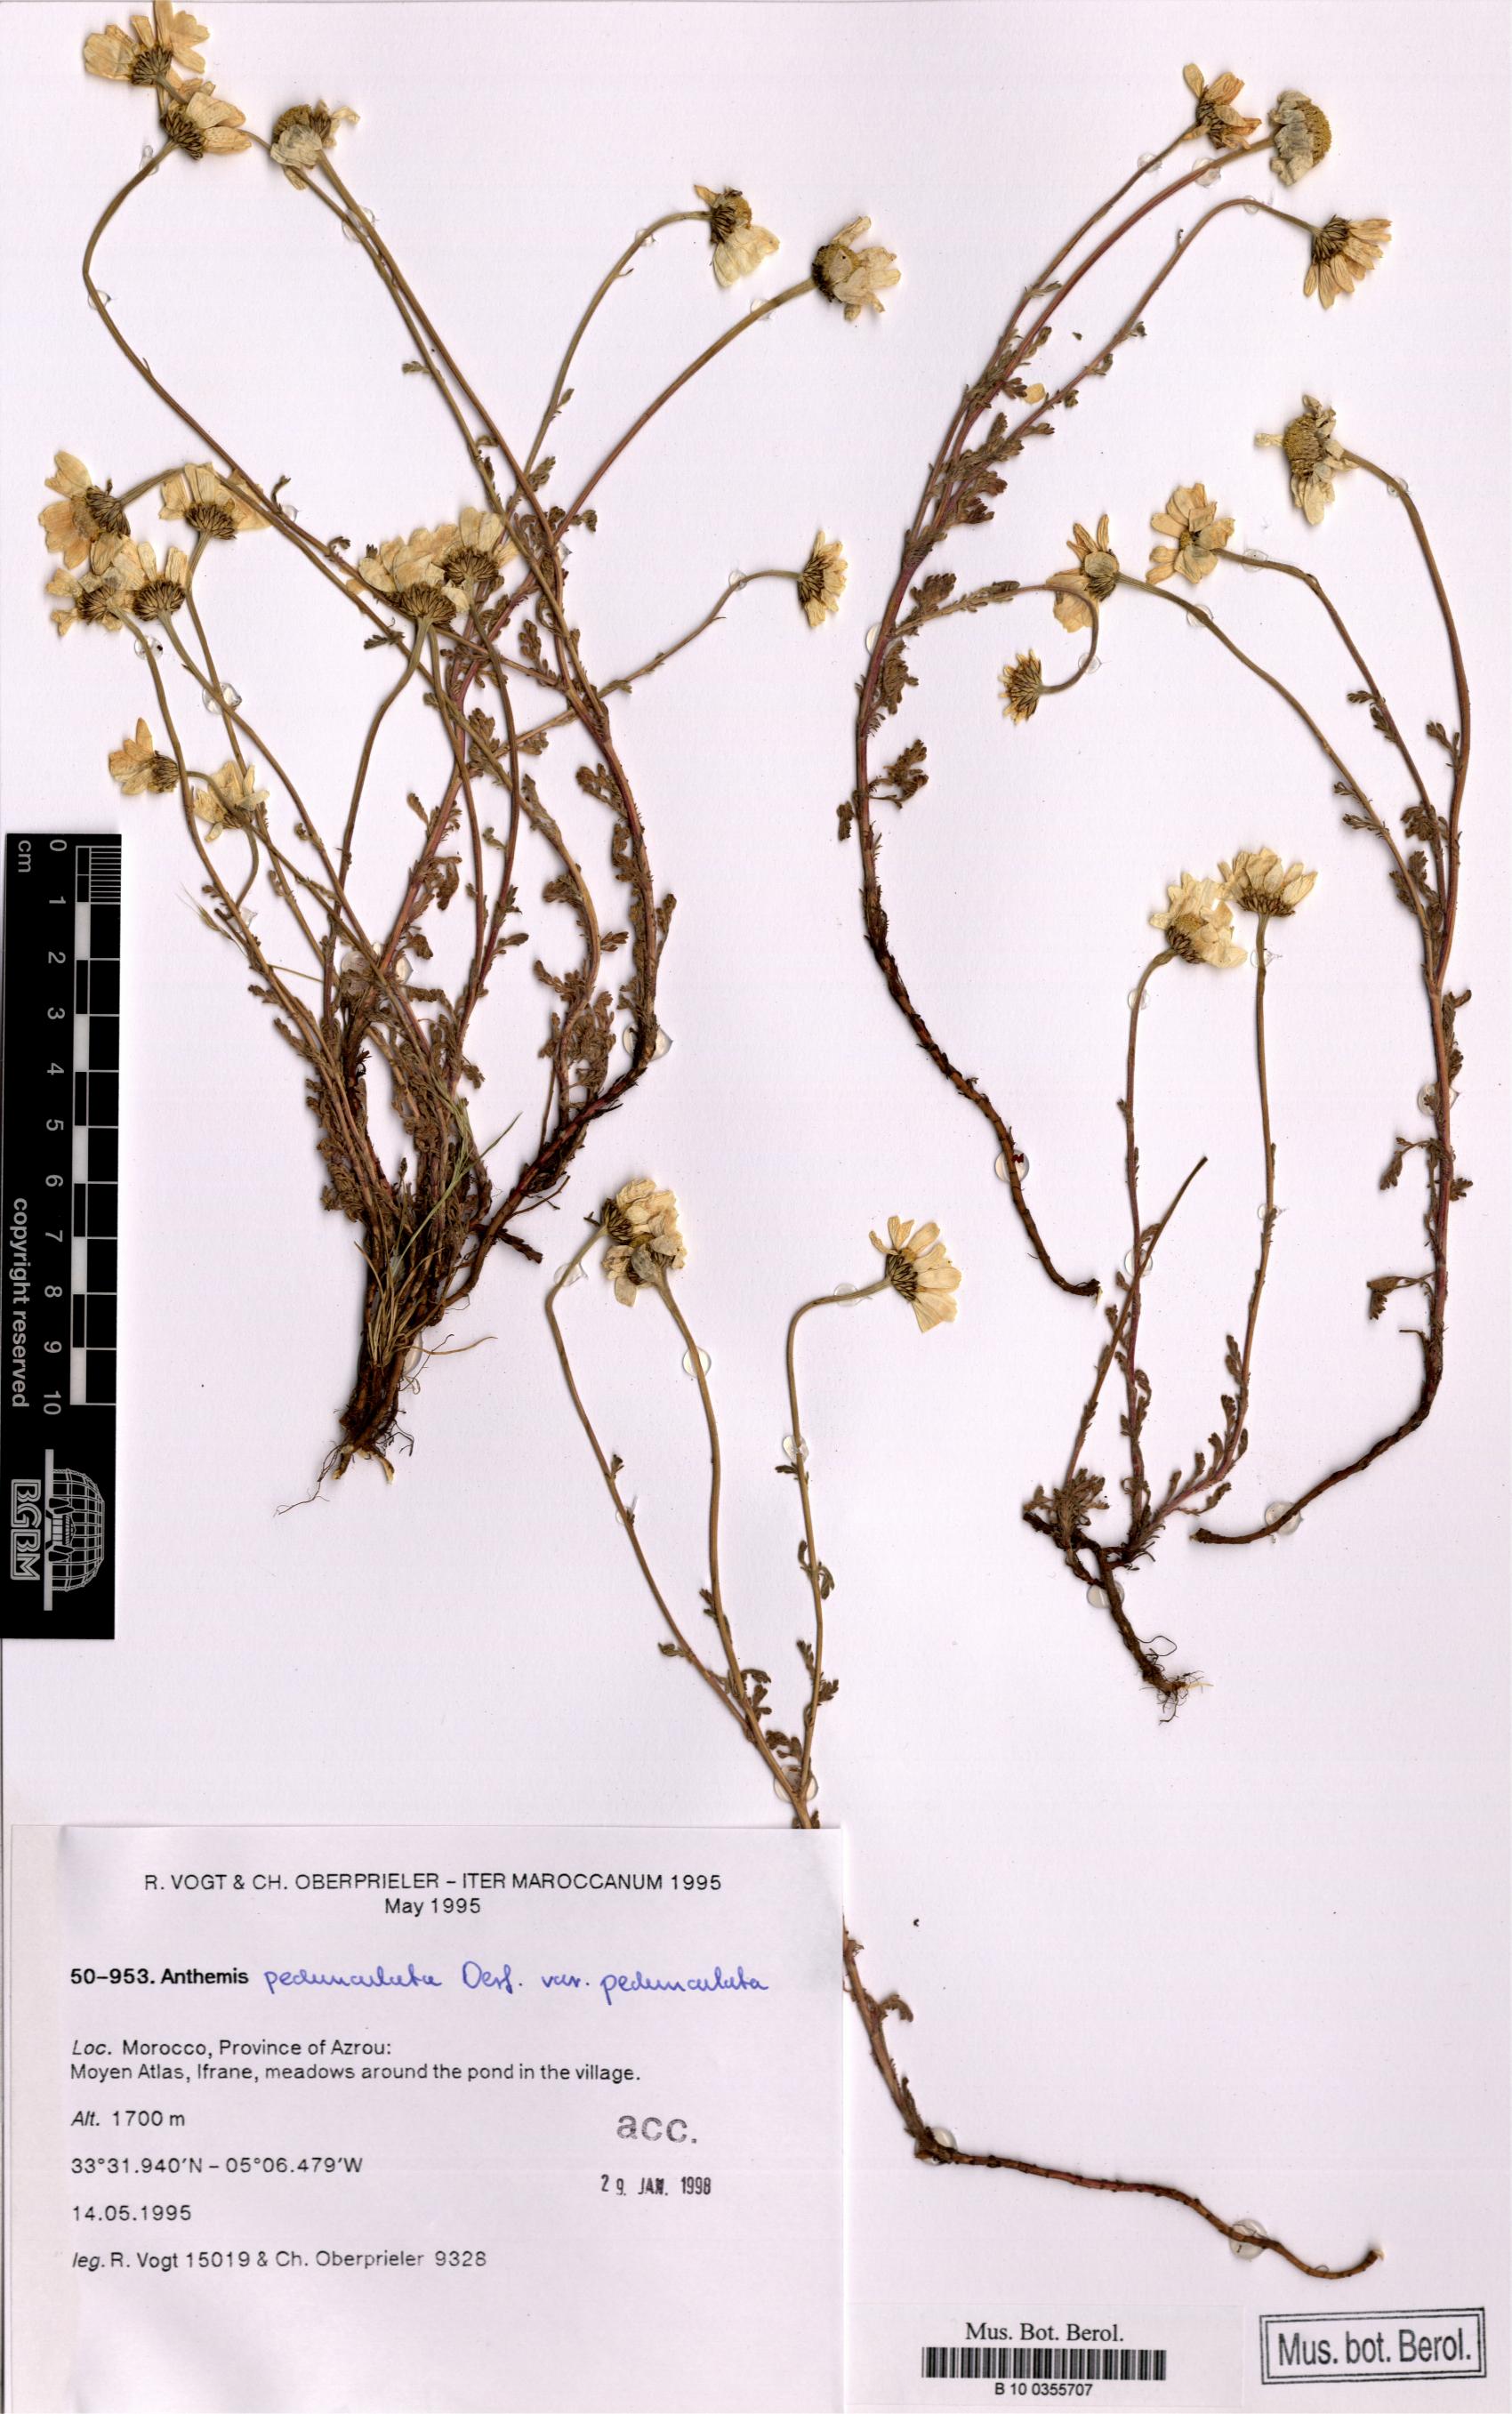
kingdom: Plantae
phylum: Tracheophyta
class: Magnoliopsida
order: Asterales
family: Asteraceae
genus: Anthemis
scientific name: Anthemis pedunculata
